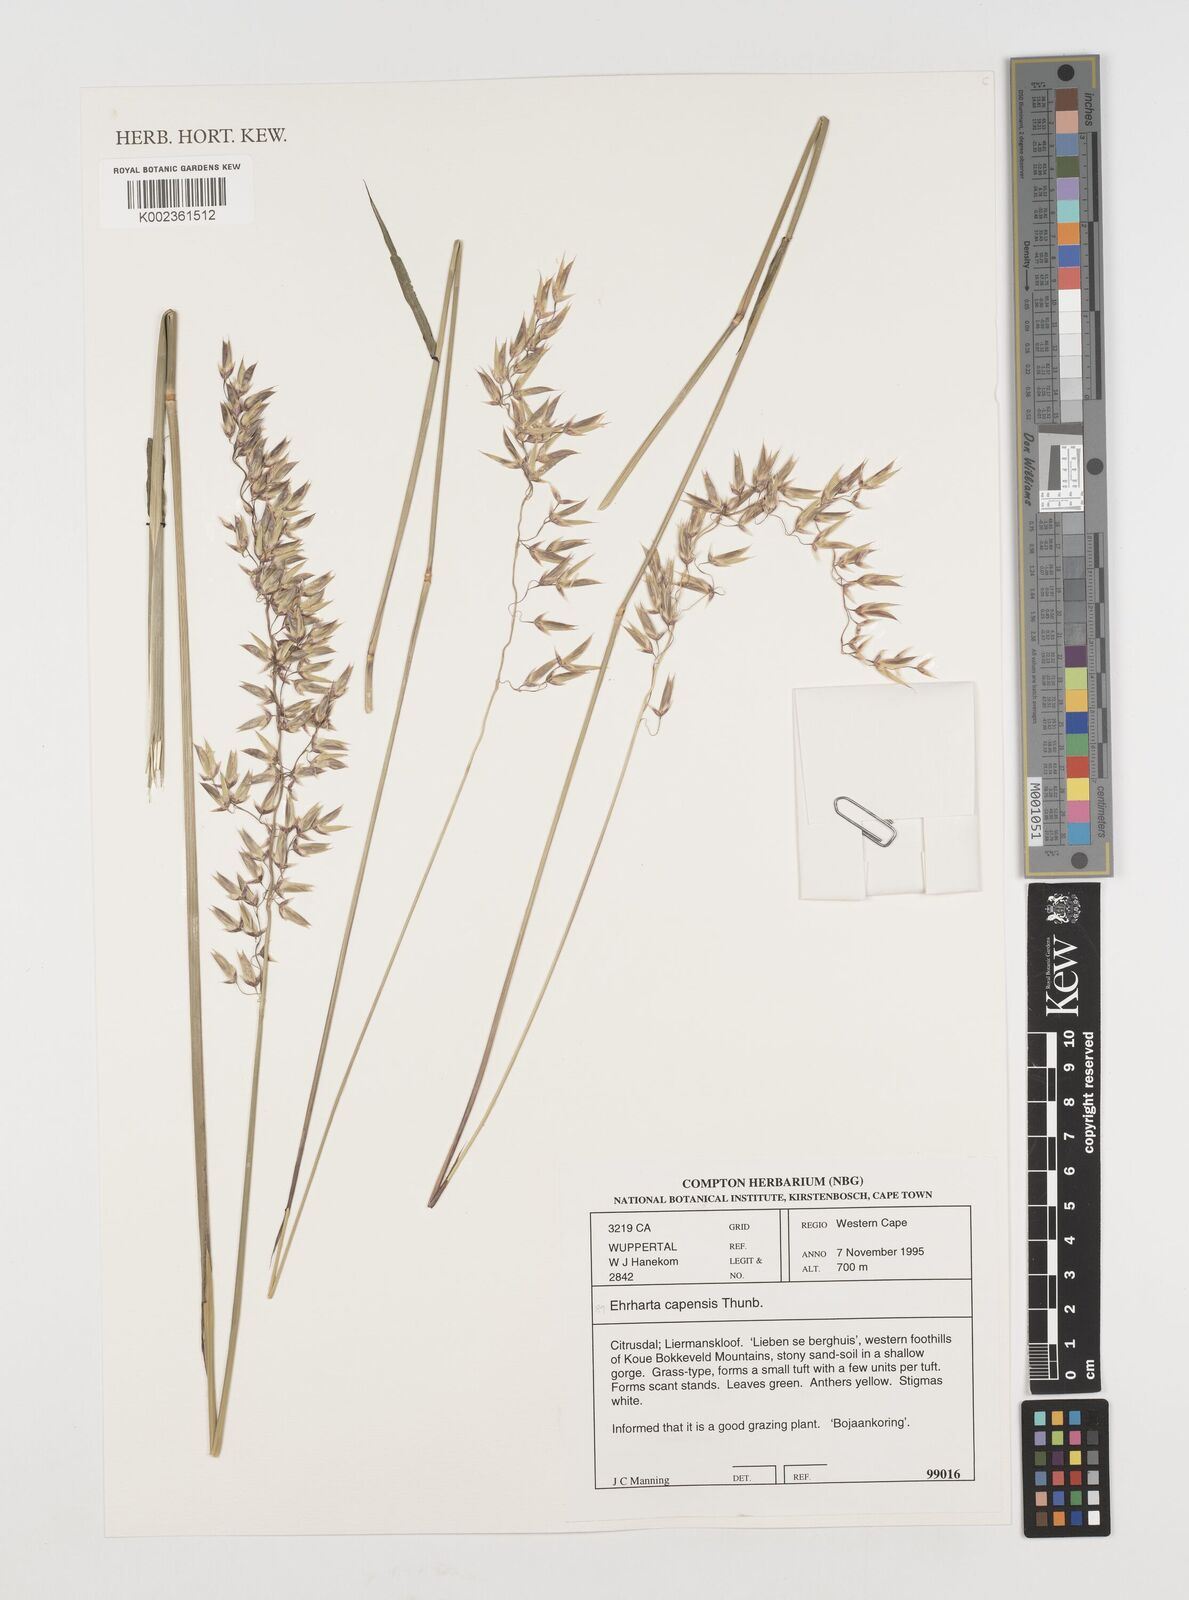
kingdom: Plantae
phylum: Tracheophyta
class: Liliopsida
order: Poales
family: Poaceae
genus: Ehrharta
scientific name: Ehrharta capensis
